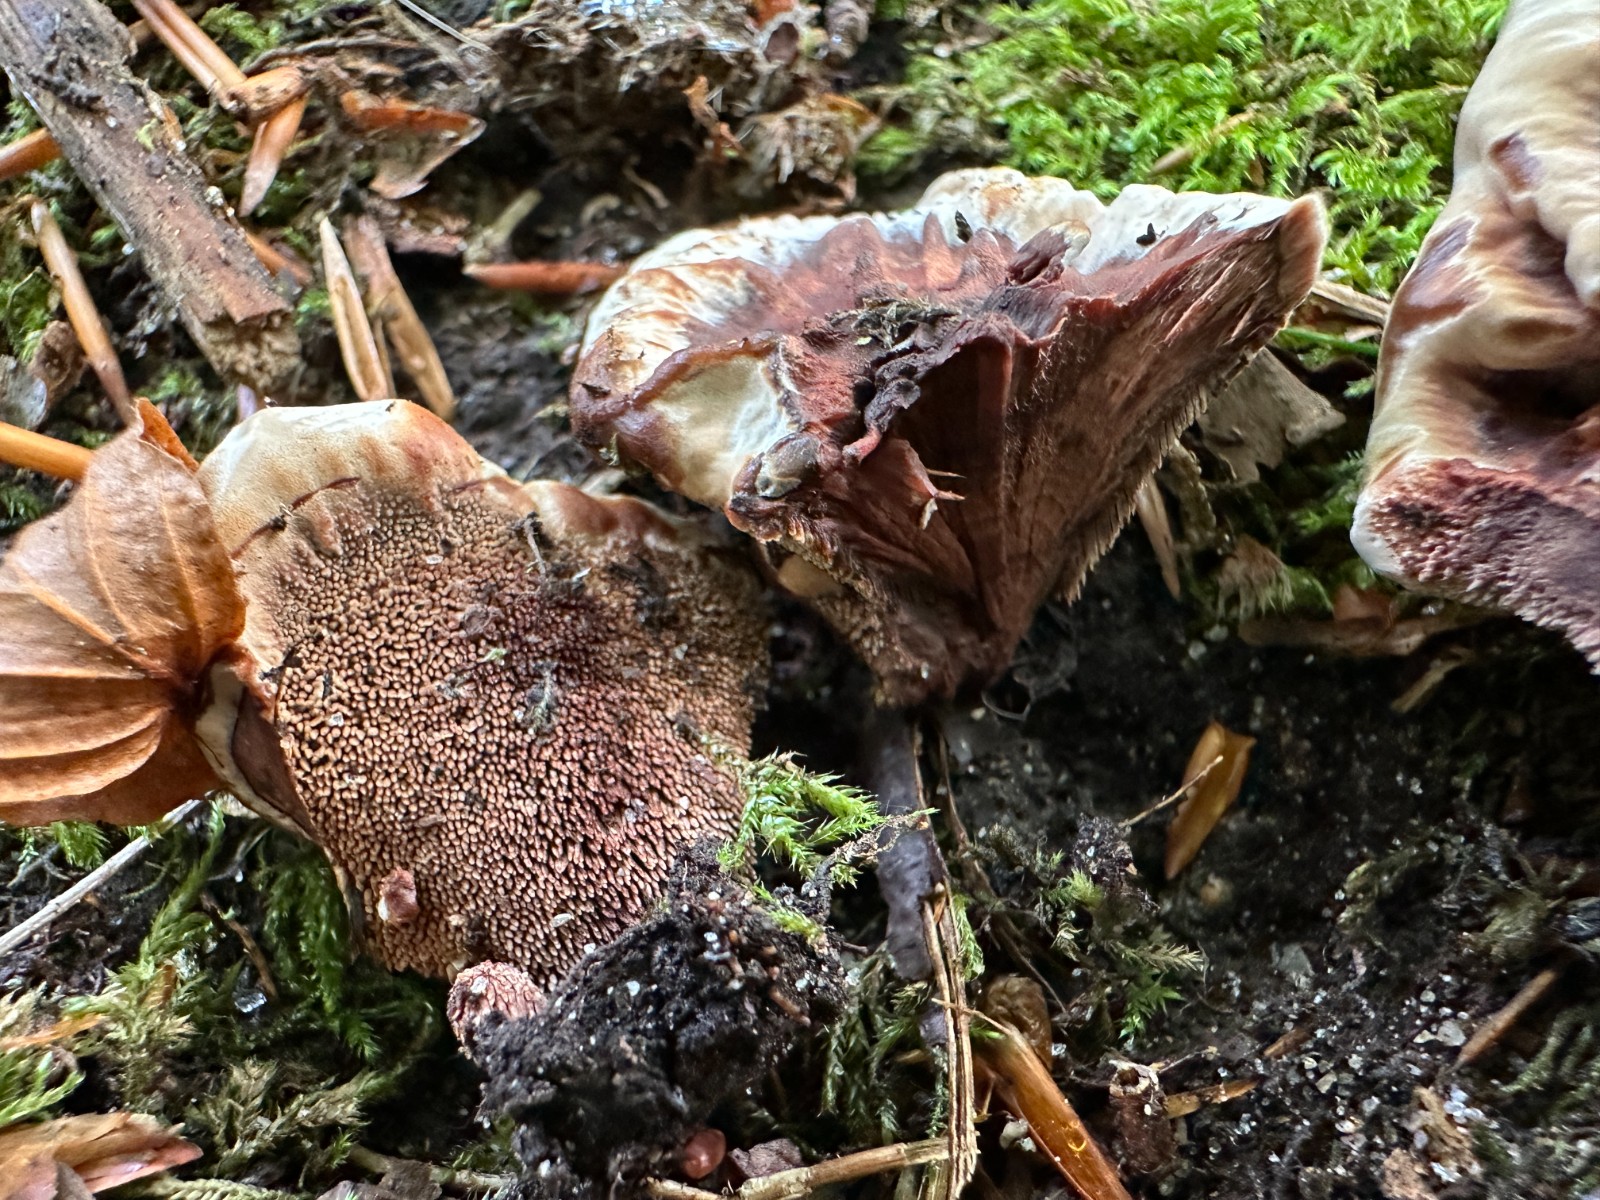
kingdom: Fungi
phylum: Basidiomycota
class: Agaricomycetes
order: Thelephorales
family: Bankeraceae
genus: Hydnellum
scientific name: Hydnellum concrescens
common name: bæltet korkpigsvamp
